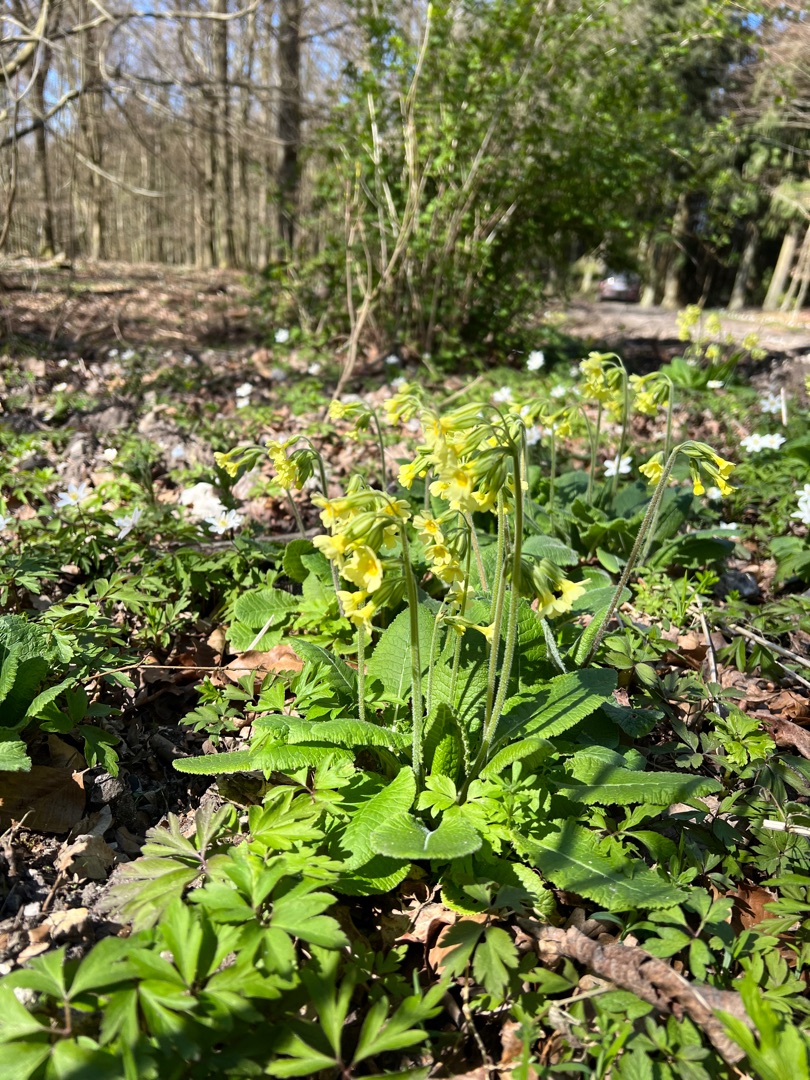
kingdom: Plantae
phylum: Tracheophyta
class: Magnoliopsida
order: Ericales
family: Primulaceae
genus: Primula
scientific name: Primula elatior
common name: Fladkravet kodriver
